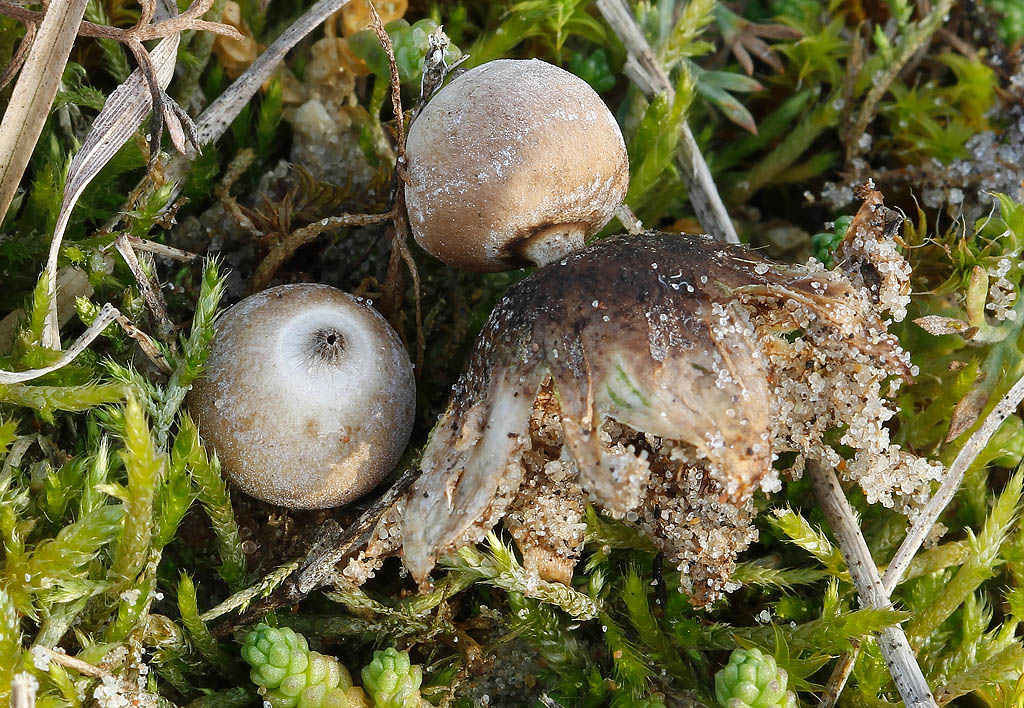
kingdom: Fungi
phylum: Basidiomycota
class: Agaricomycetes
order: Geastrales
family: Geastraceae
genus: Geastrum
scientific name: Geastrum minimum
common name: liden stjernebold
